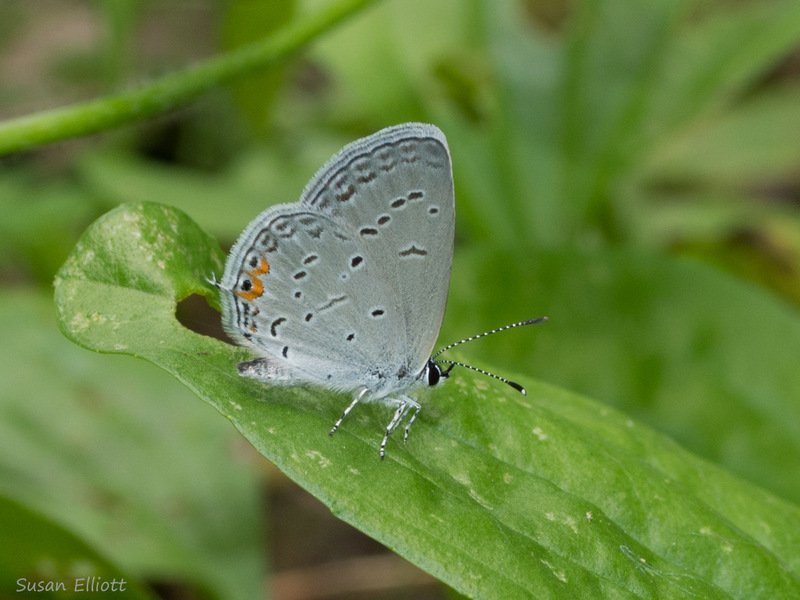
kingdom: Animalia
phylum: Arthropoda
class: Insecta
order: Lepidoptera
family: Lycaenidae
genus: Elkalyce
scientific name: Elkalyce comyntas
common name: Eastern Tailed-Blue
